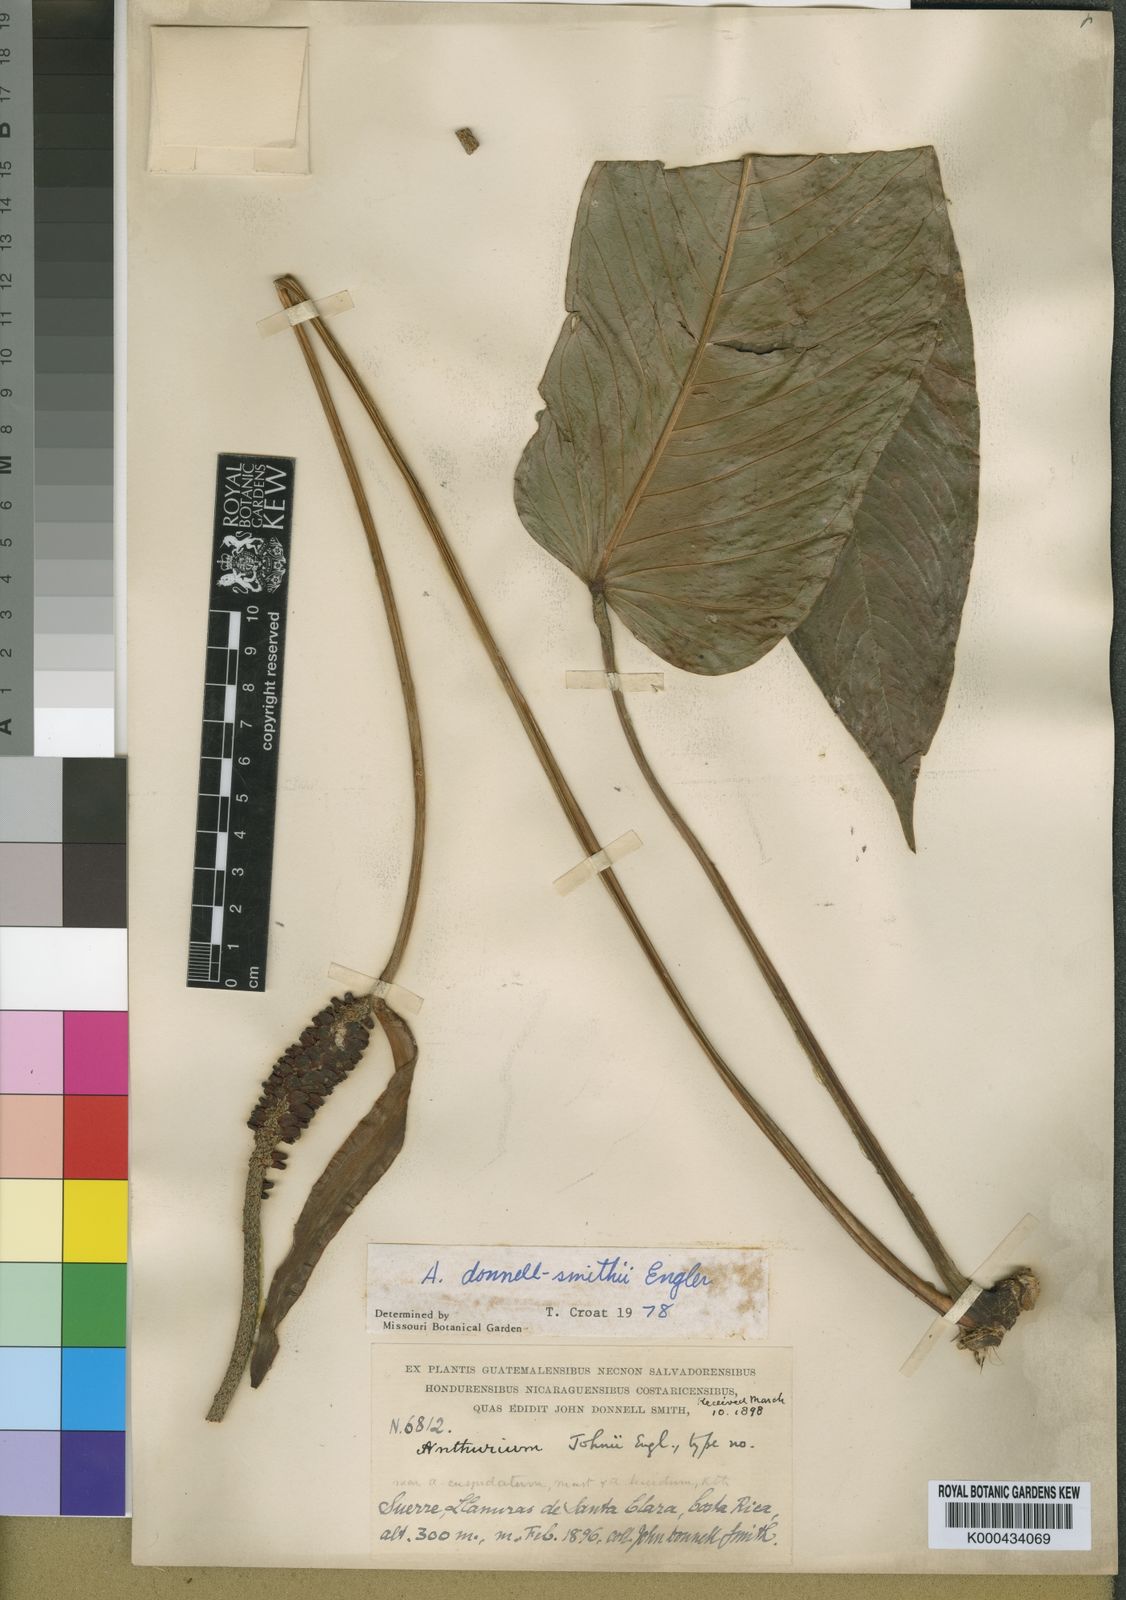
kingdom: Plantae
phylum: Tracheophyta
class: Liliopsida
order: Alismatales
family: Araceae
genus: Anthurium
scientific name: Anthurium cuspidatum
